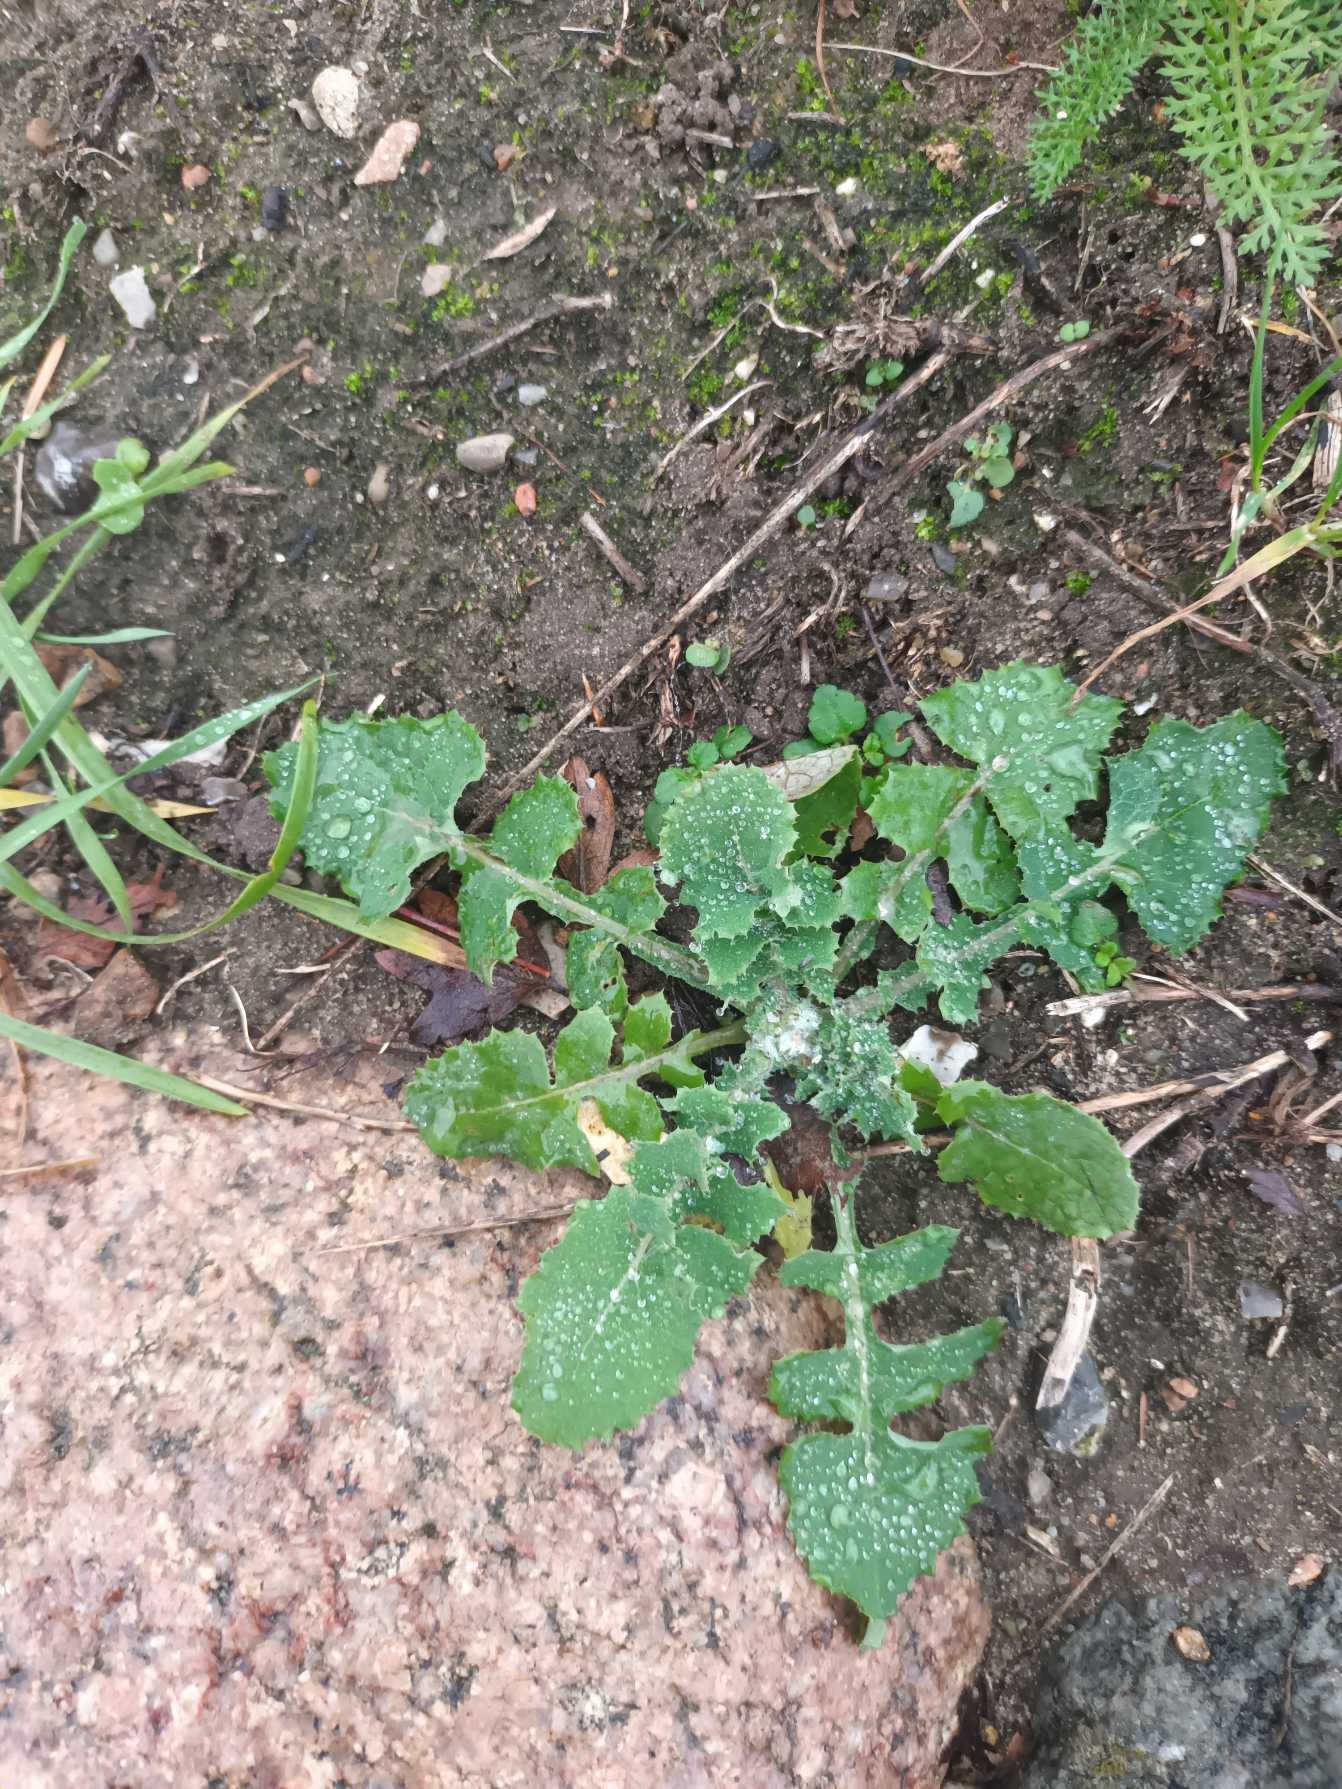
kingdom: Plantae
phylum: Tracheophyta
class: Magnoliopsida
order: Asterales
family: Asteraceae
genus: Sonchus
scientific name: Sonchus oleraceus
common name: Almindelig svinemælk
